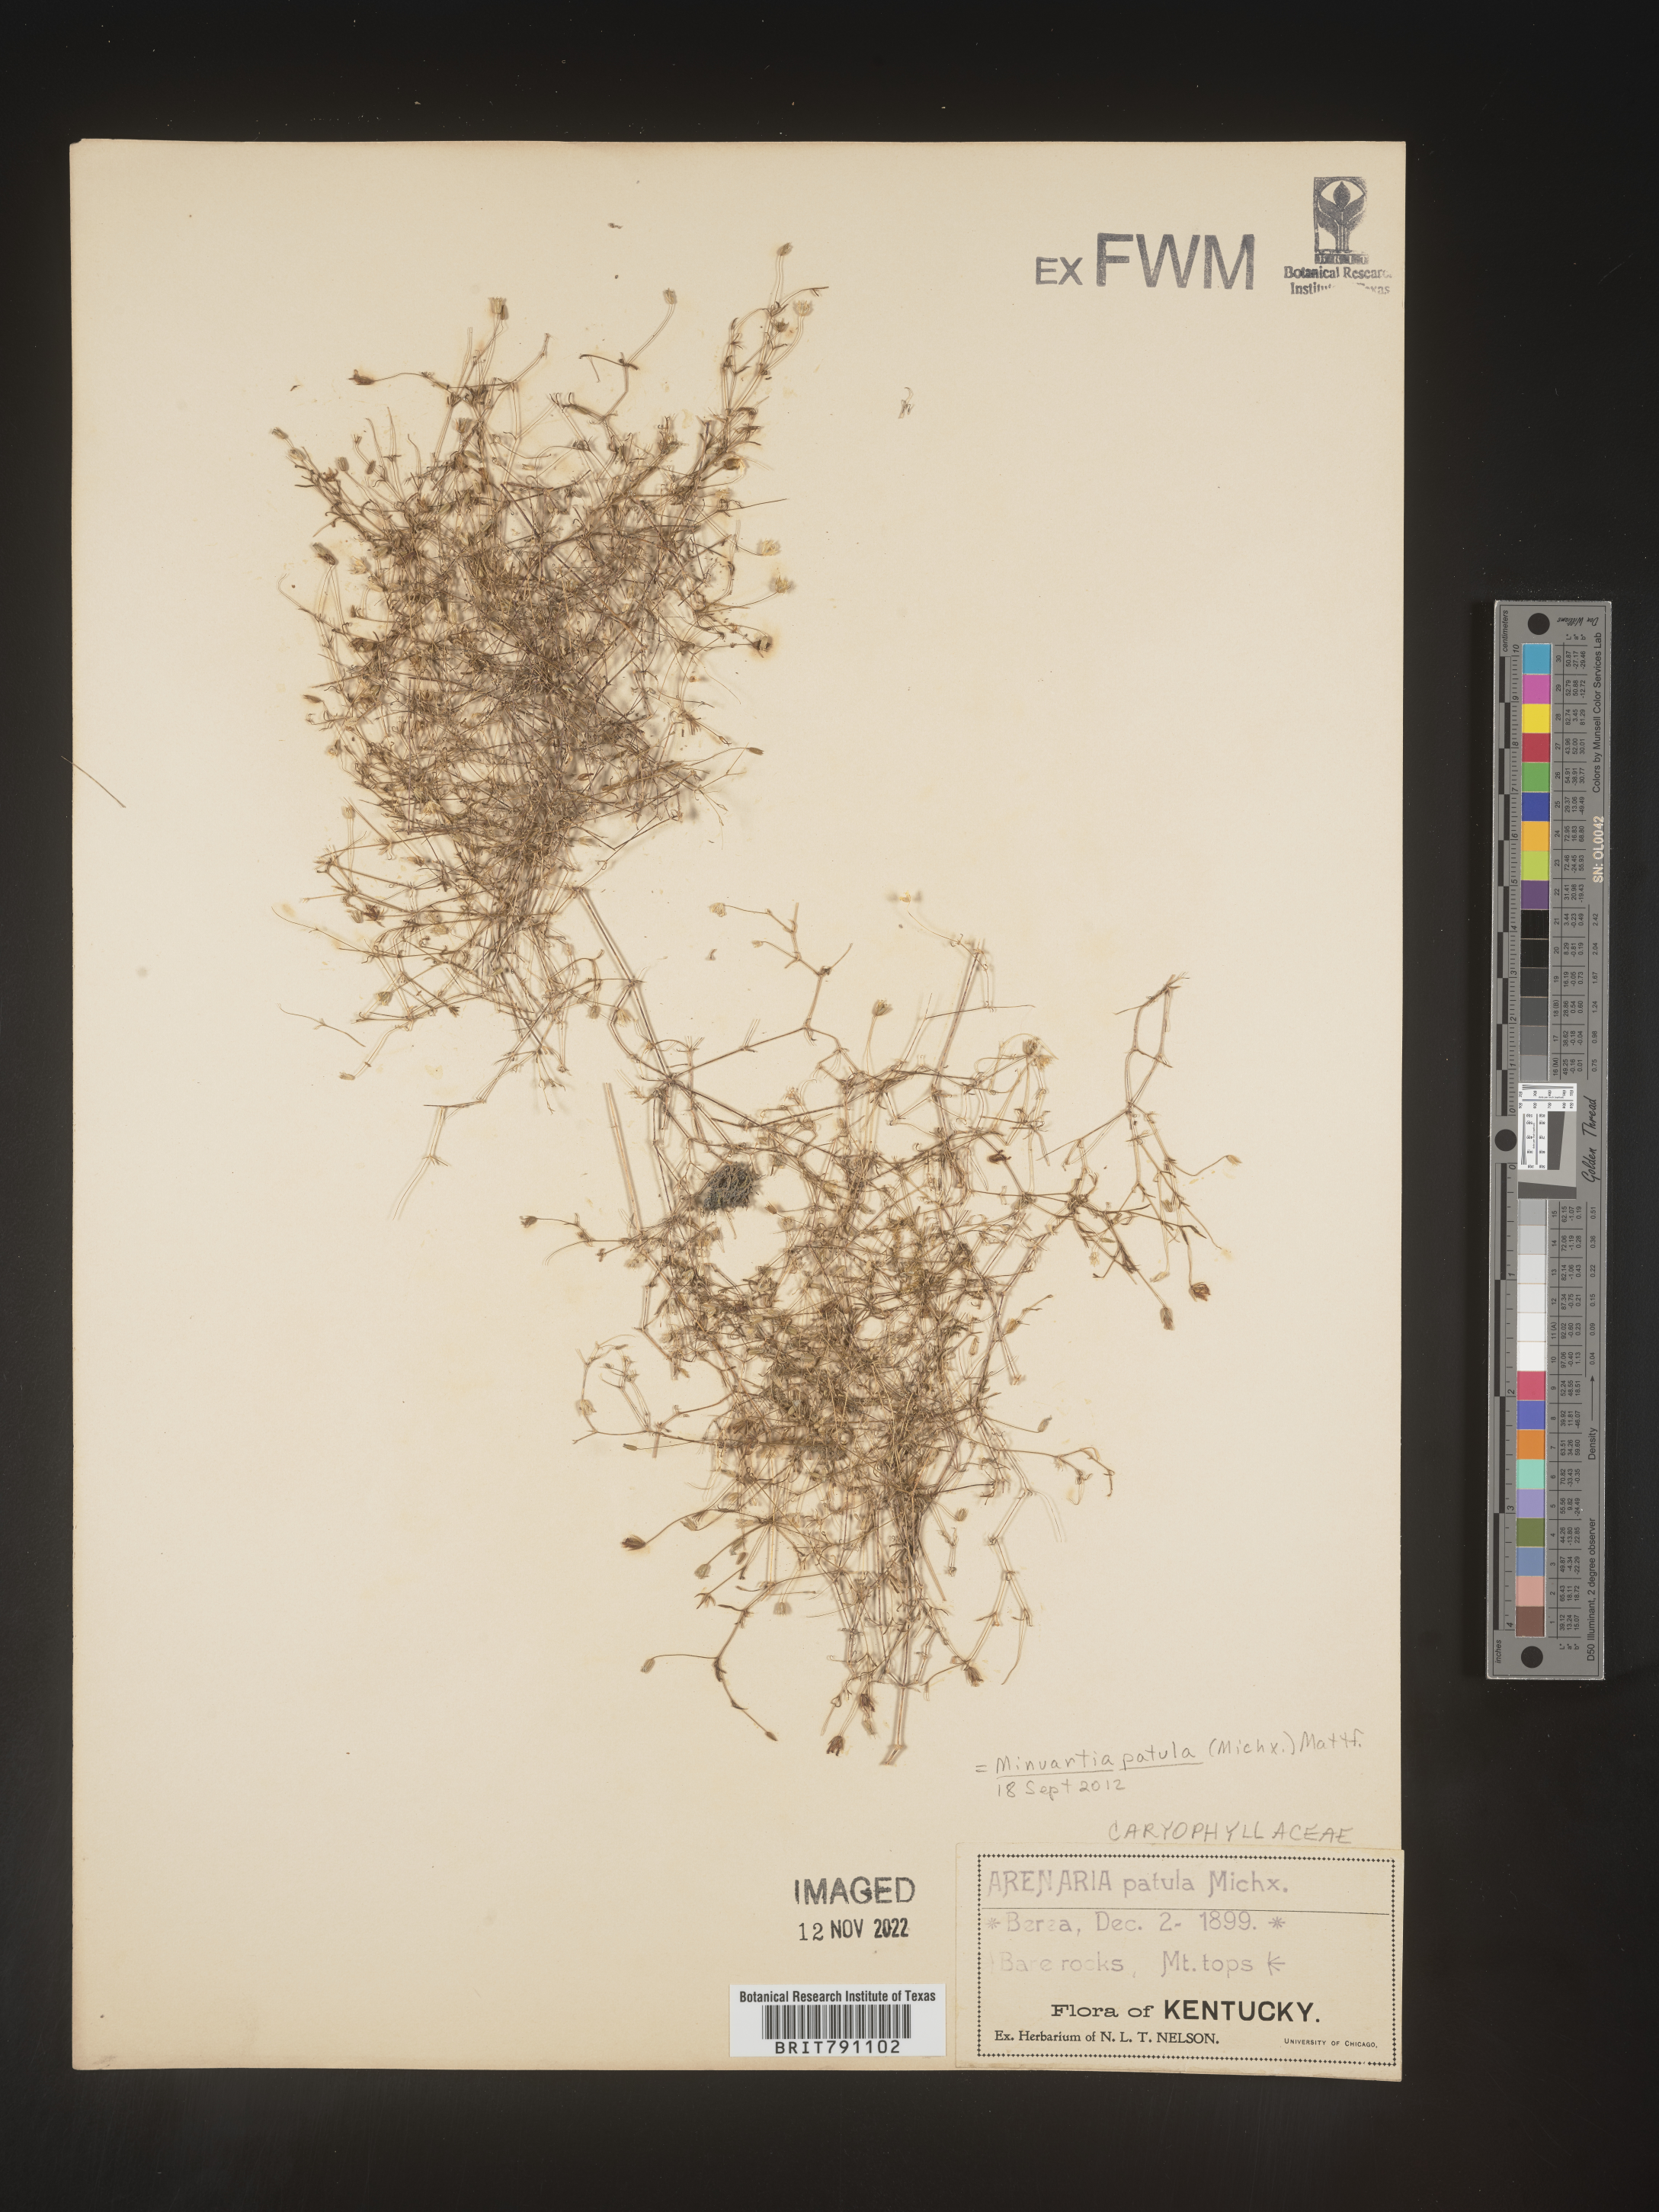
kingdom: Plantae
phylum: Tracheophyta
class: Magnoliopsida
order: Caryophyllales
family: Caryophyllaceae
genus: Mononeuria
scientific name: Mononeuria patula
